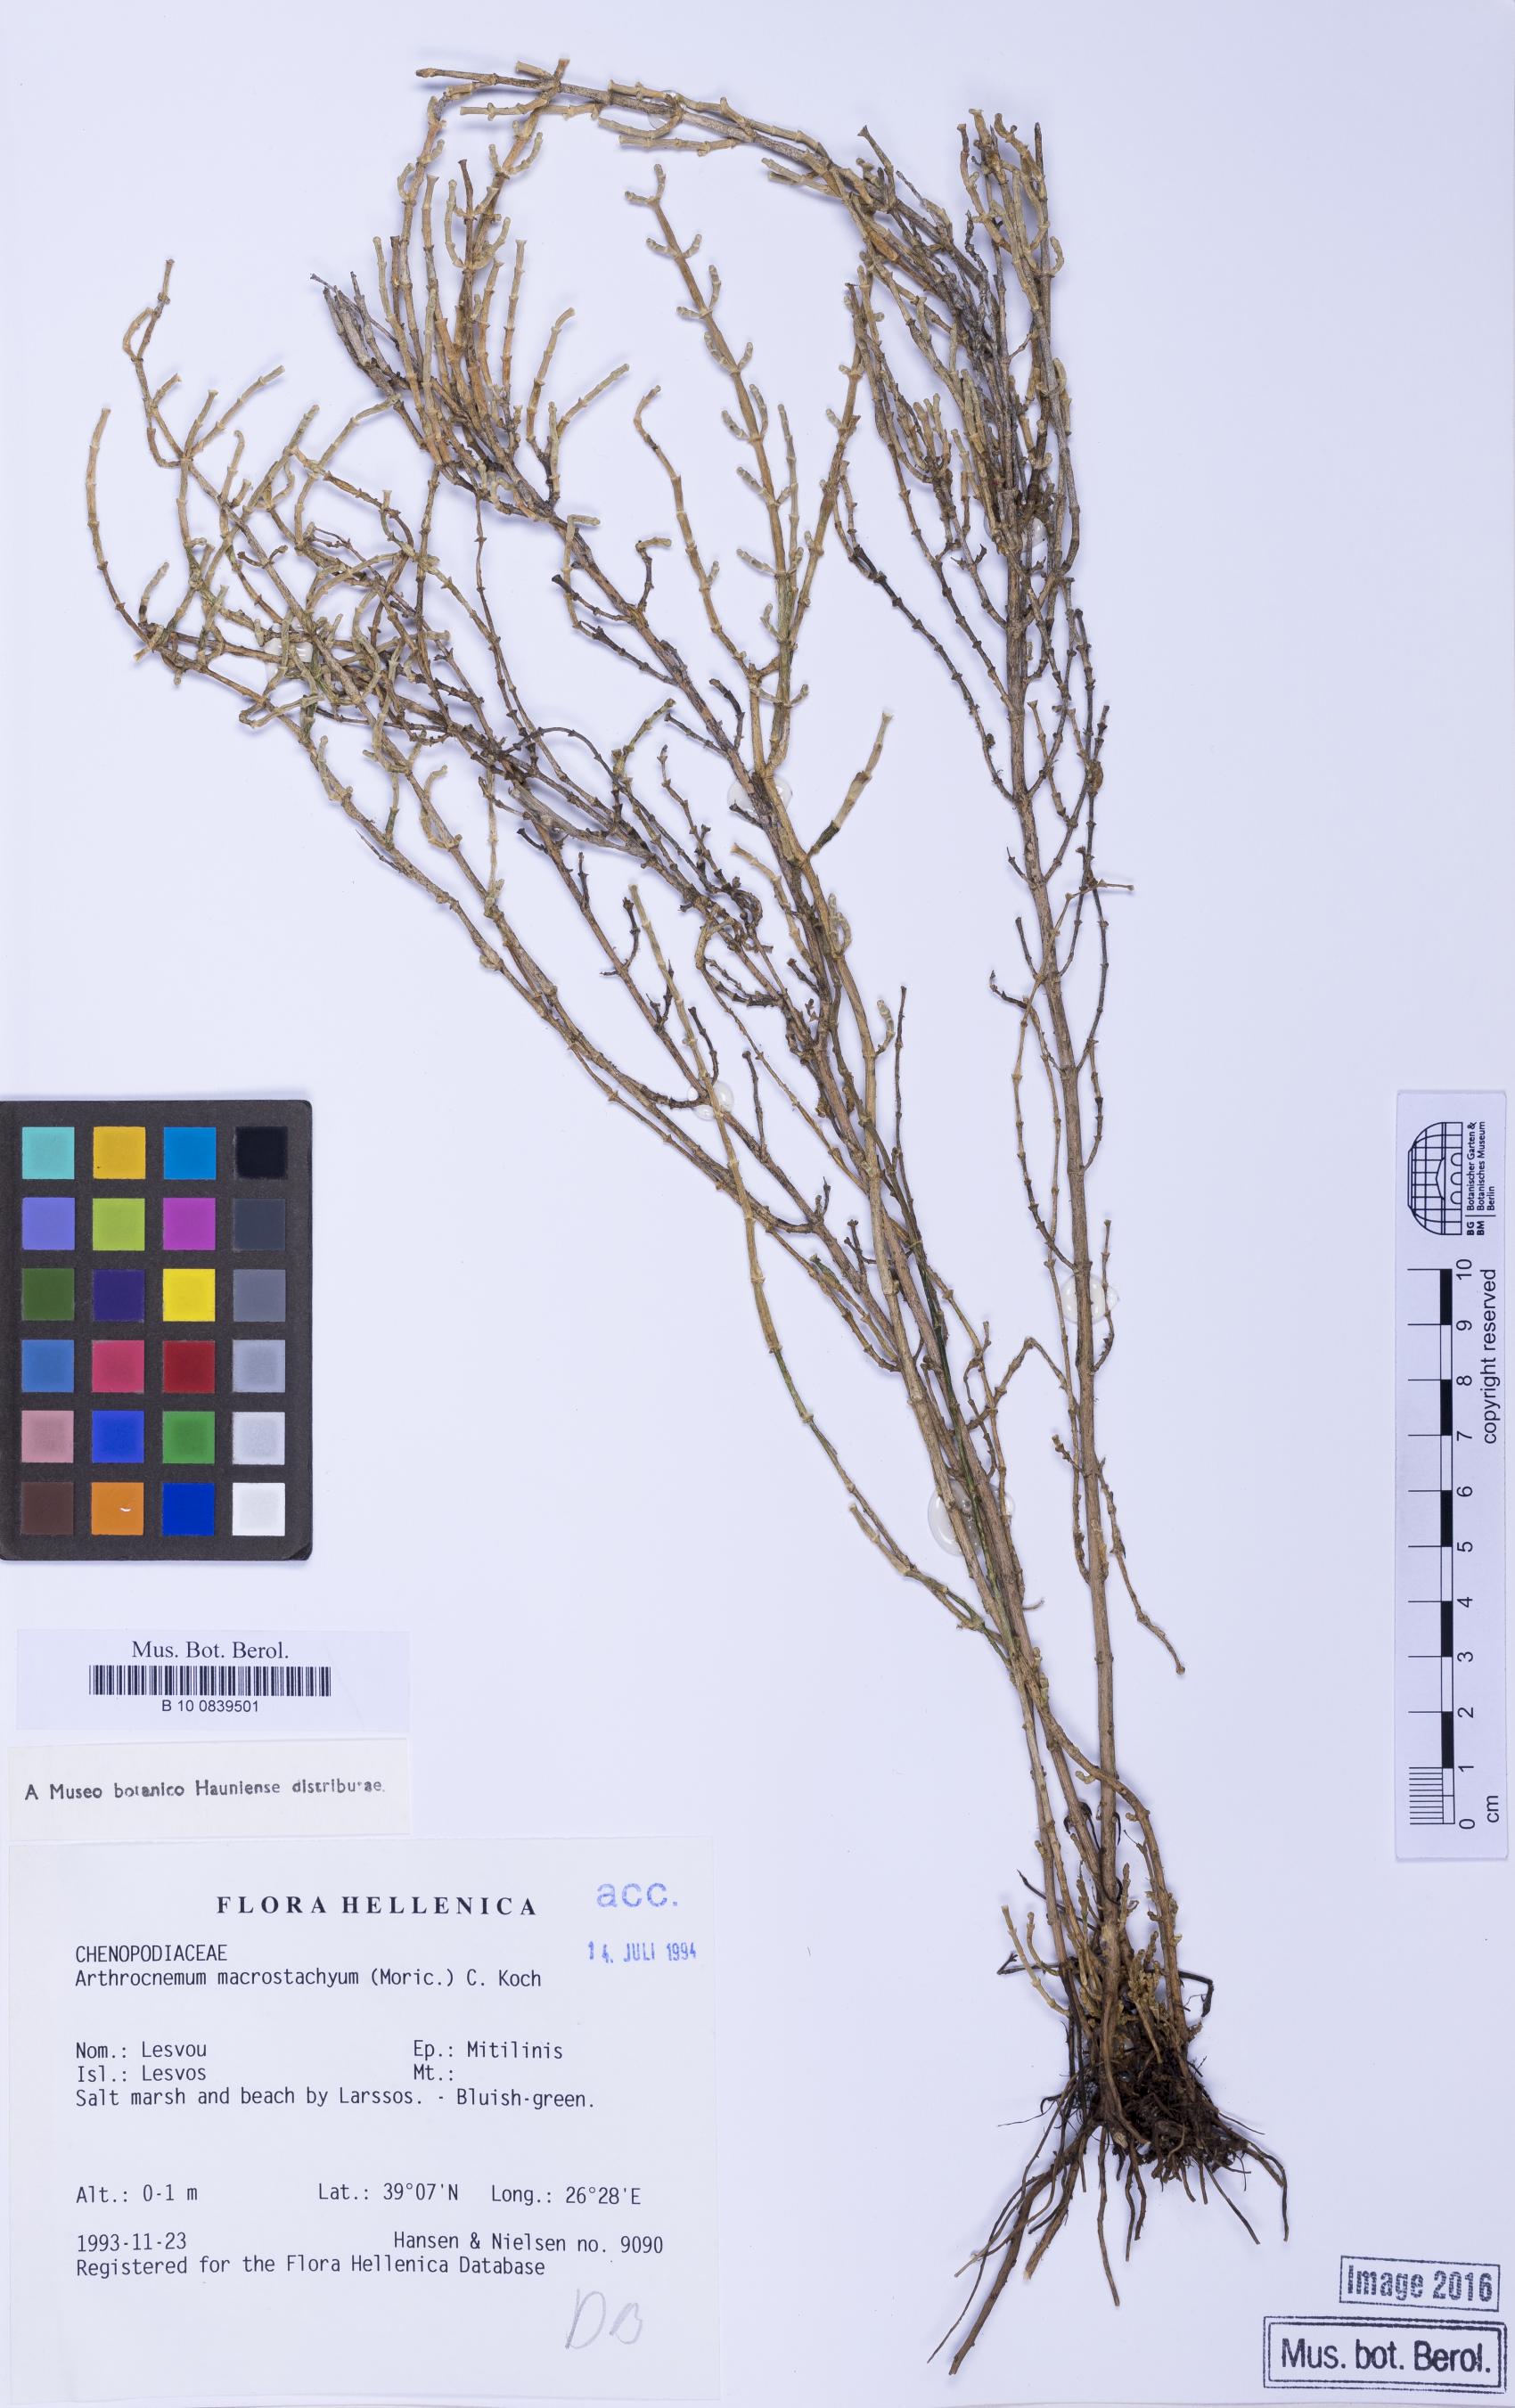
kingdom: Plantae
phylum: Tracheophyta
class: Magnoliopsida
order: Caryophyllales
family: Amaranthaceae
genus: Salicornia
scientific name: Salicornia fruticosa
